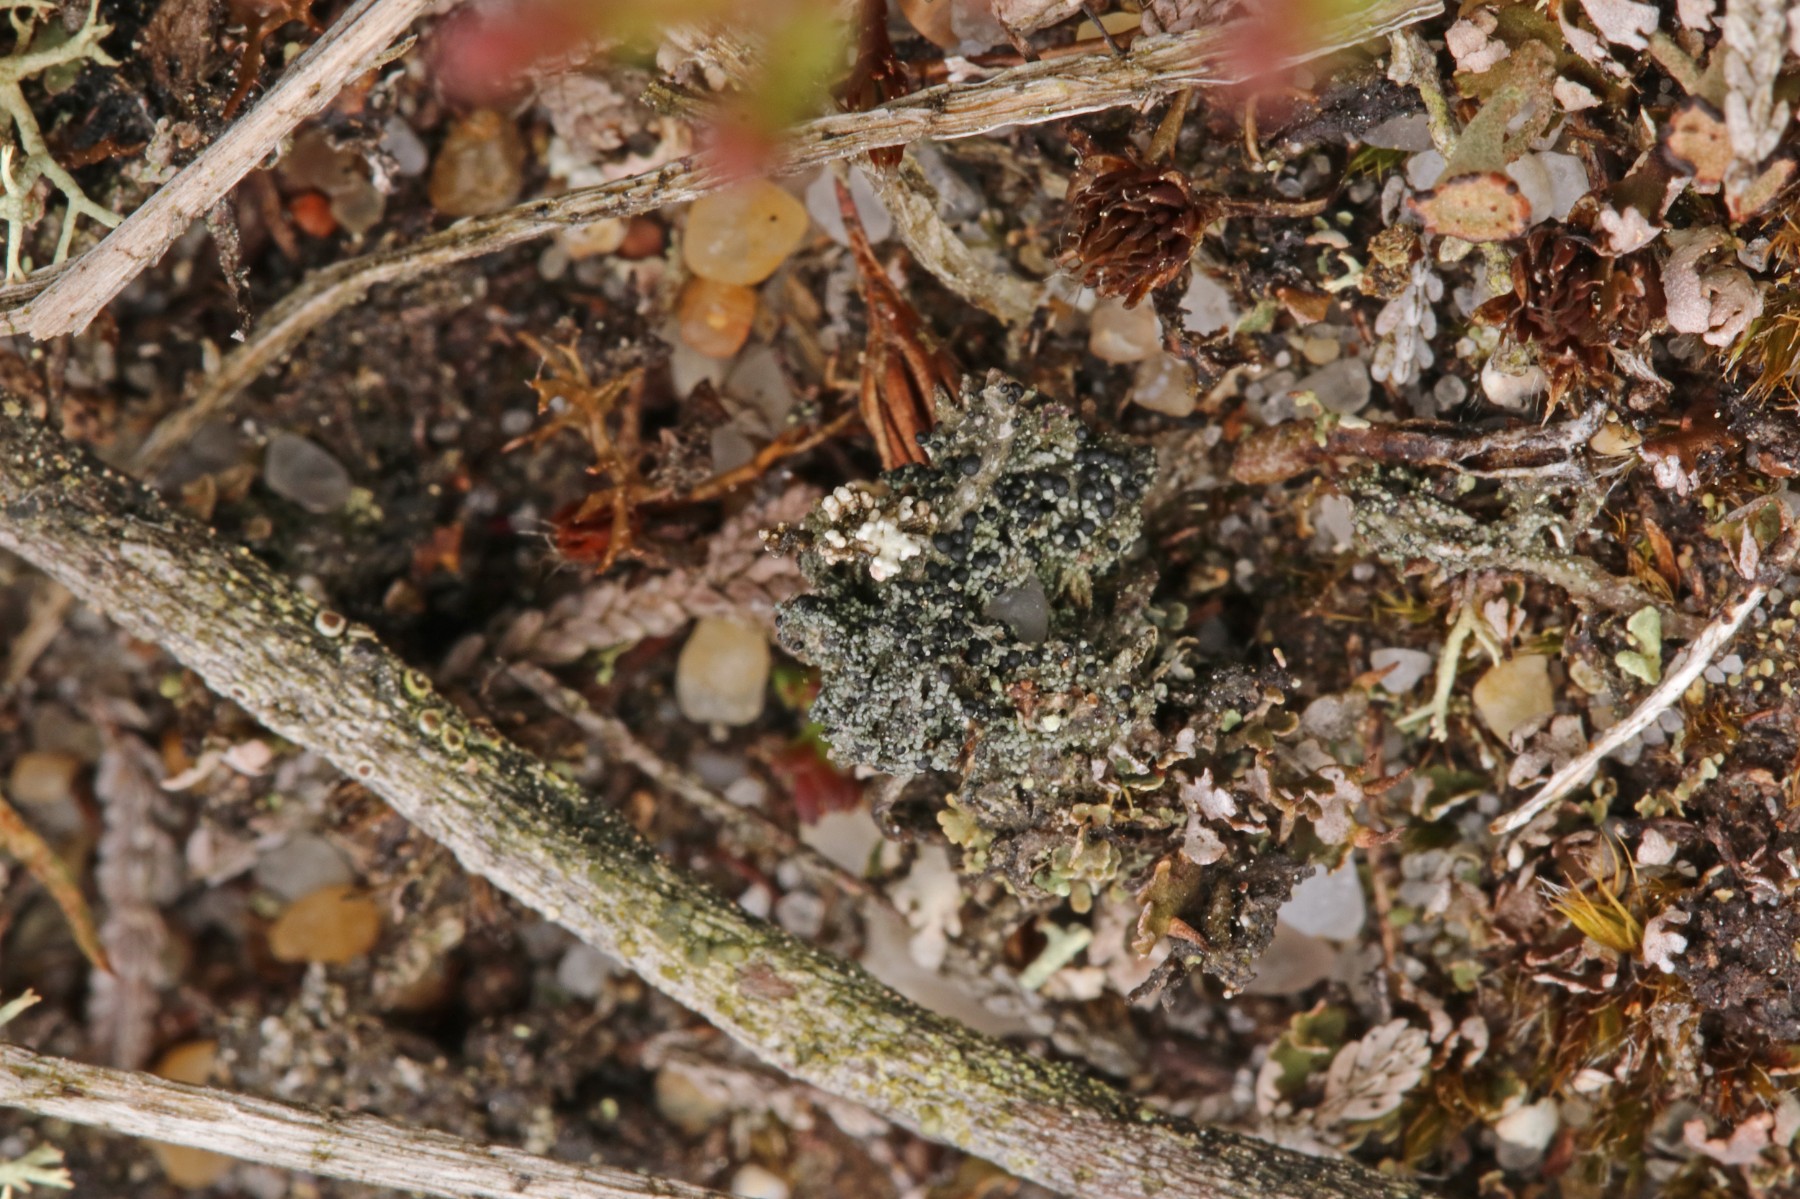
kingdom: Fungi
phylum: Ascomycota
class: Lecanoromycetes
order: Lecanorales
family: Byssolomataceae
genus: Micarea
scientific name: Micarea lignaria
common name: tørve-knaplav
